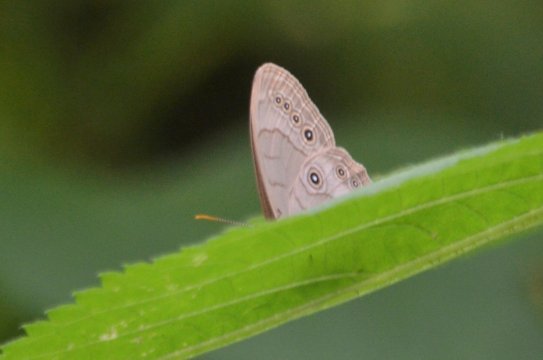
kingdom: Animalia
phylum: Arthropoda
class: Insecta
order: Lepidoptera
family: Nymphalidae
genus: Lethe
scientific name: Lethe eurydice
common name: Appalachian Eyed Brown
